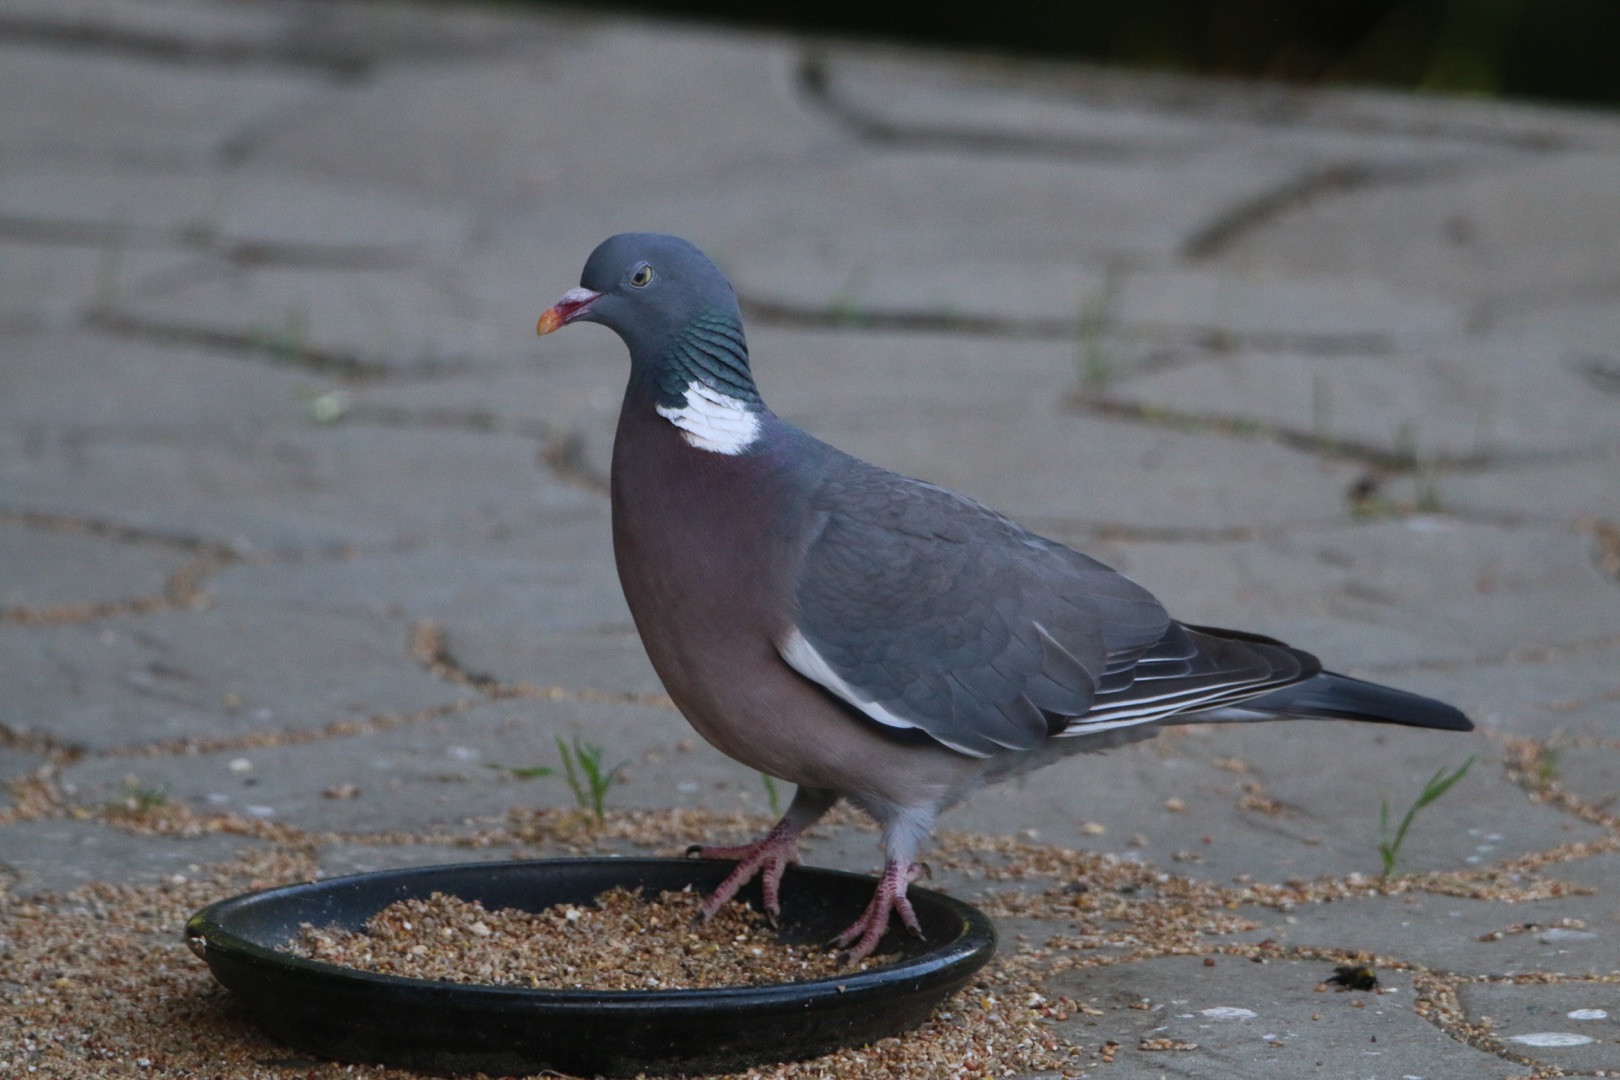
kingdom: Animalia
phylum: Chordata
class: Aves
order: Columbiformes
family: Columbidae
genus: Columba
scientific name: Columba palumbus
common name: Ringdue
